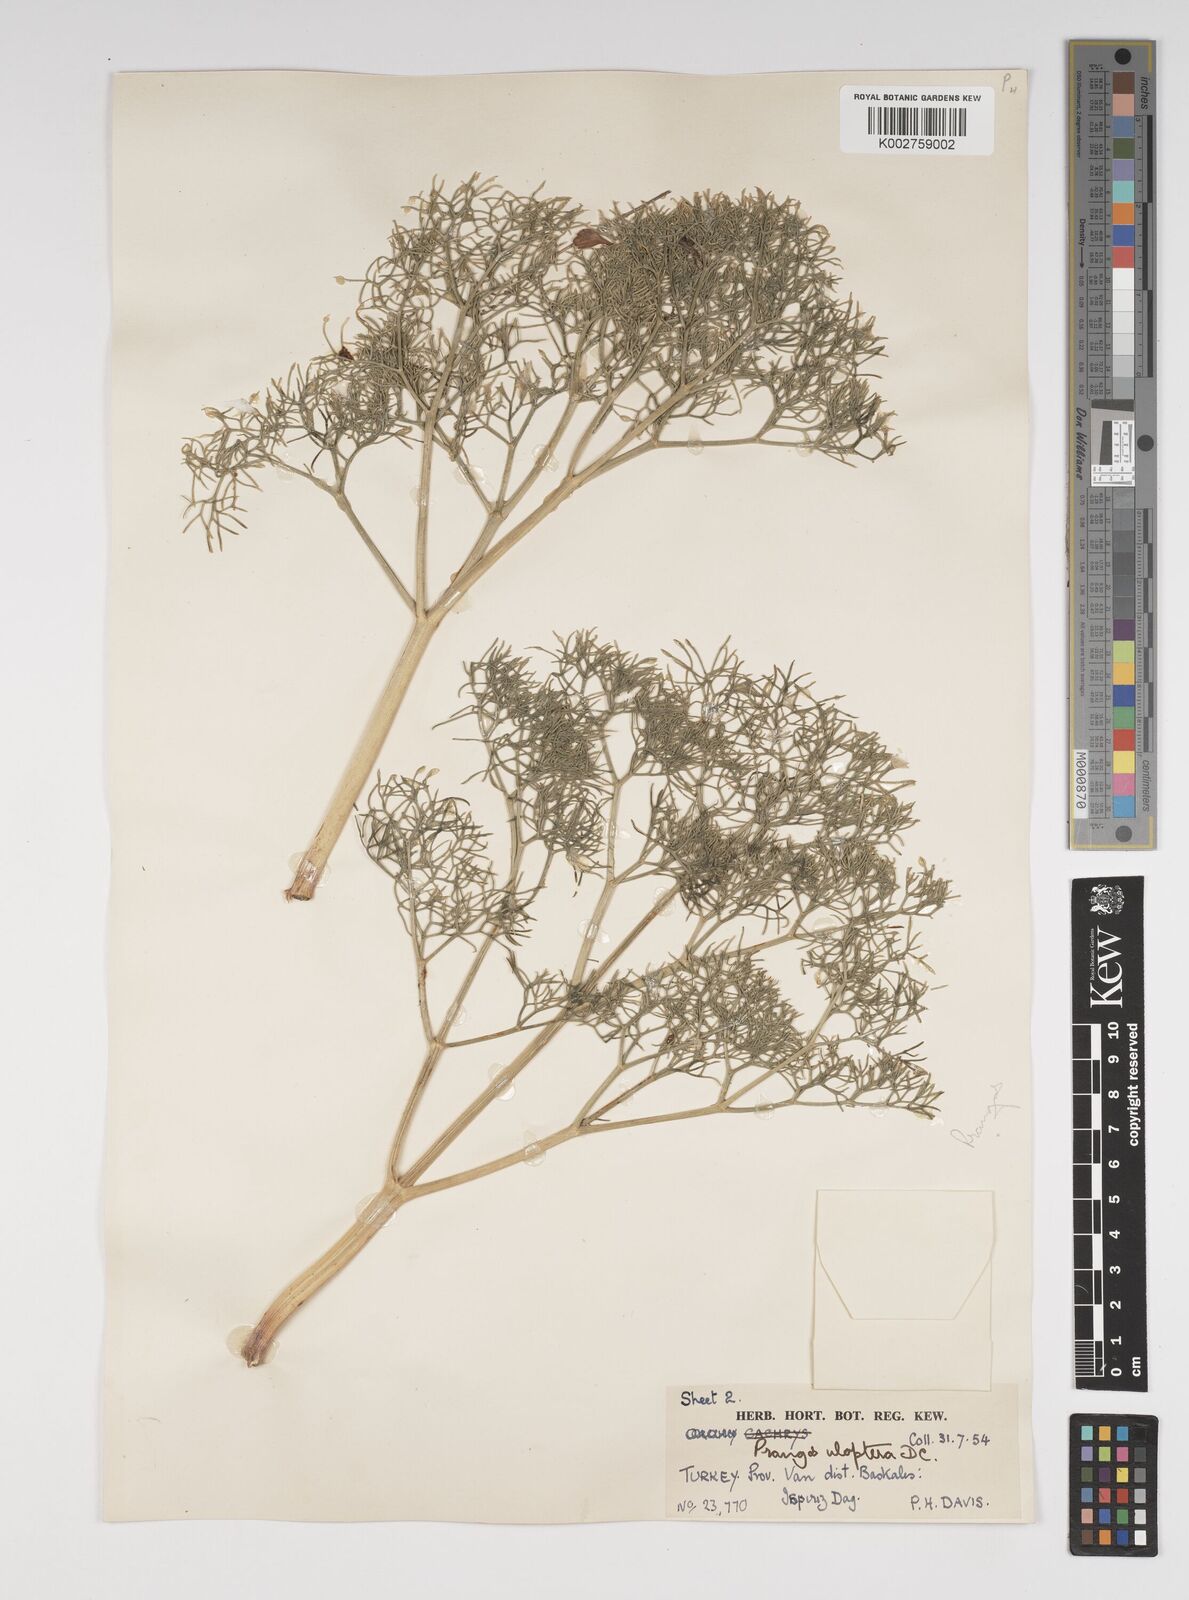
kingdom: Plantae
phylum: Tracheophyta
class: Magnoliopsida
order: Apiales
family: Apiaceae
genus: Prangos
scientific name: Prangos uloptera
